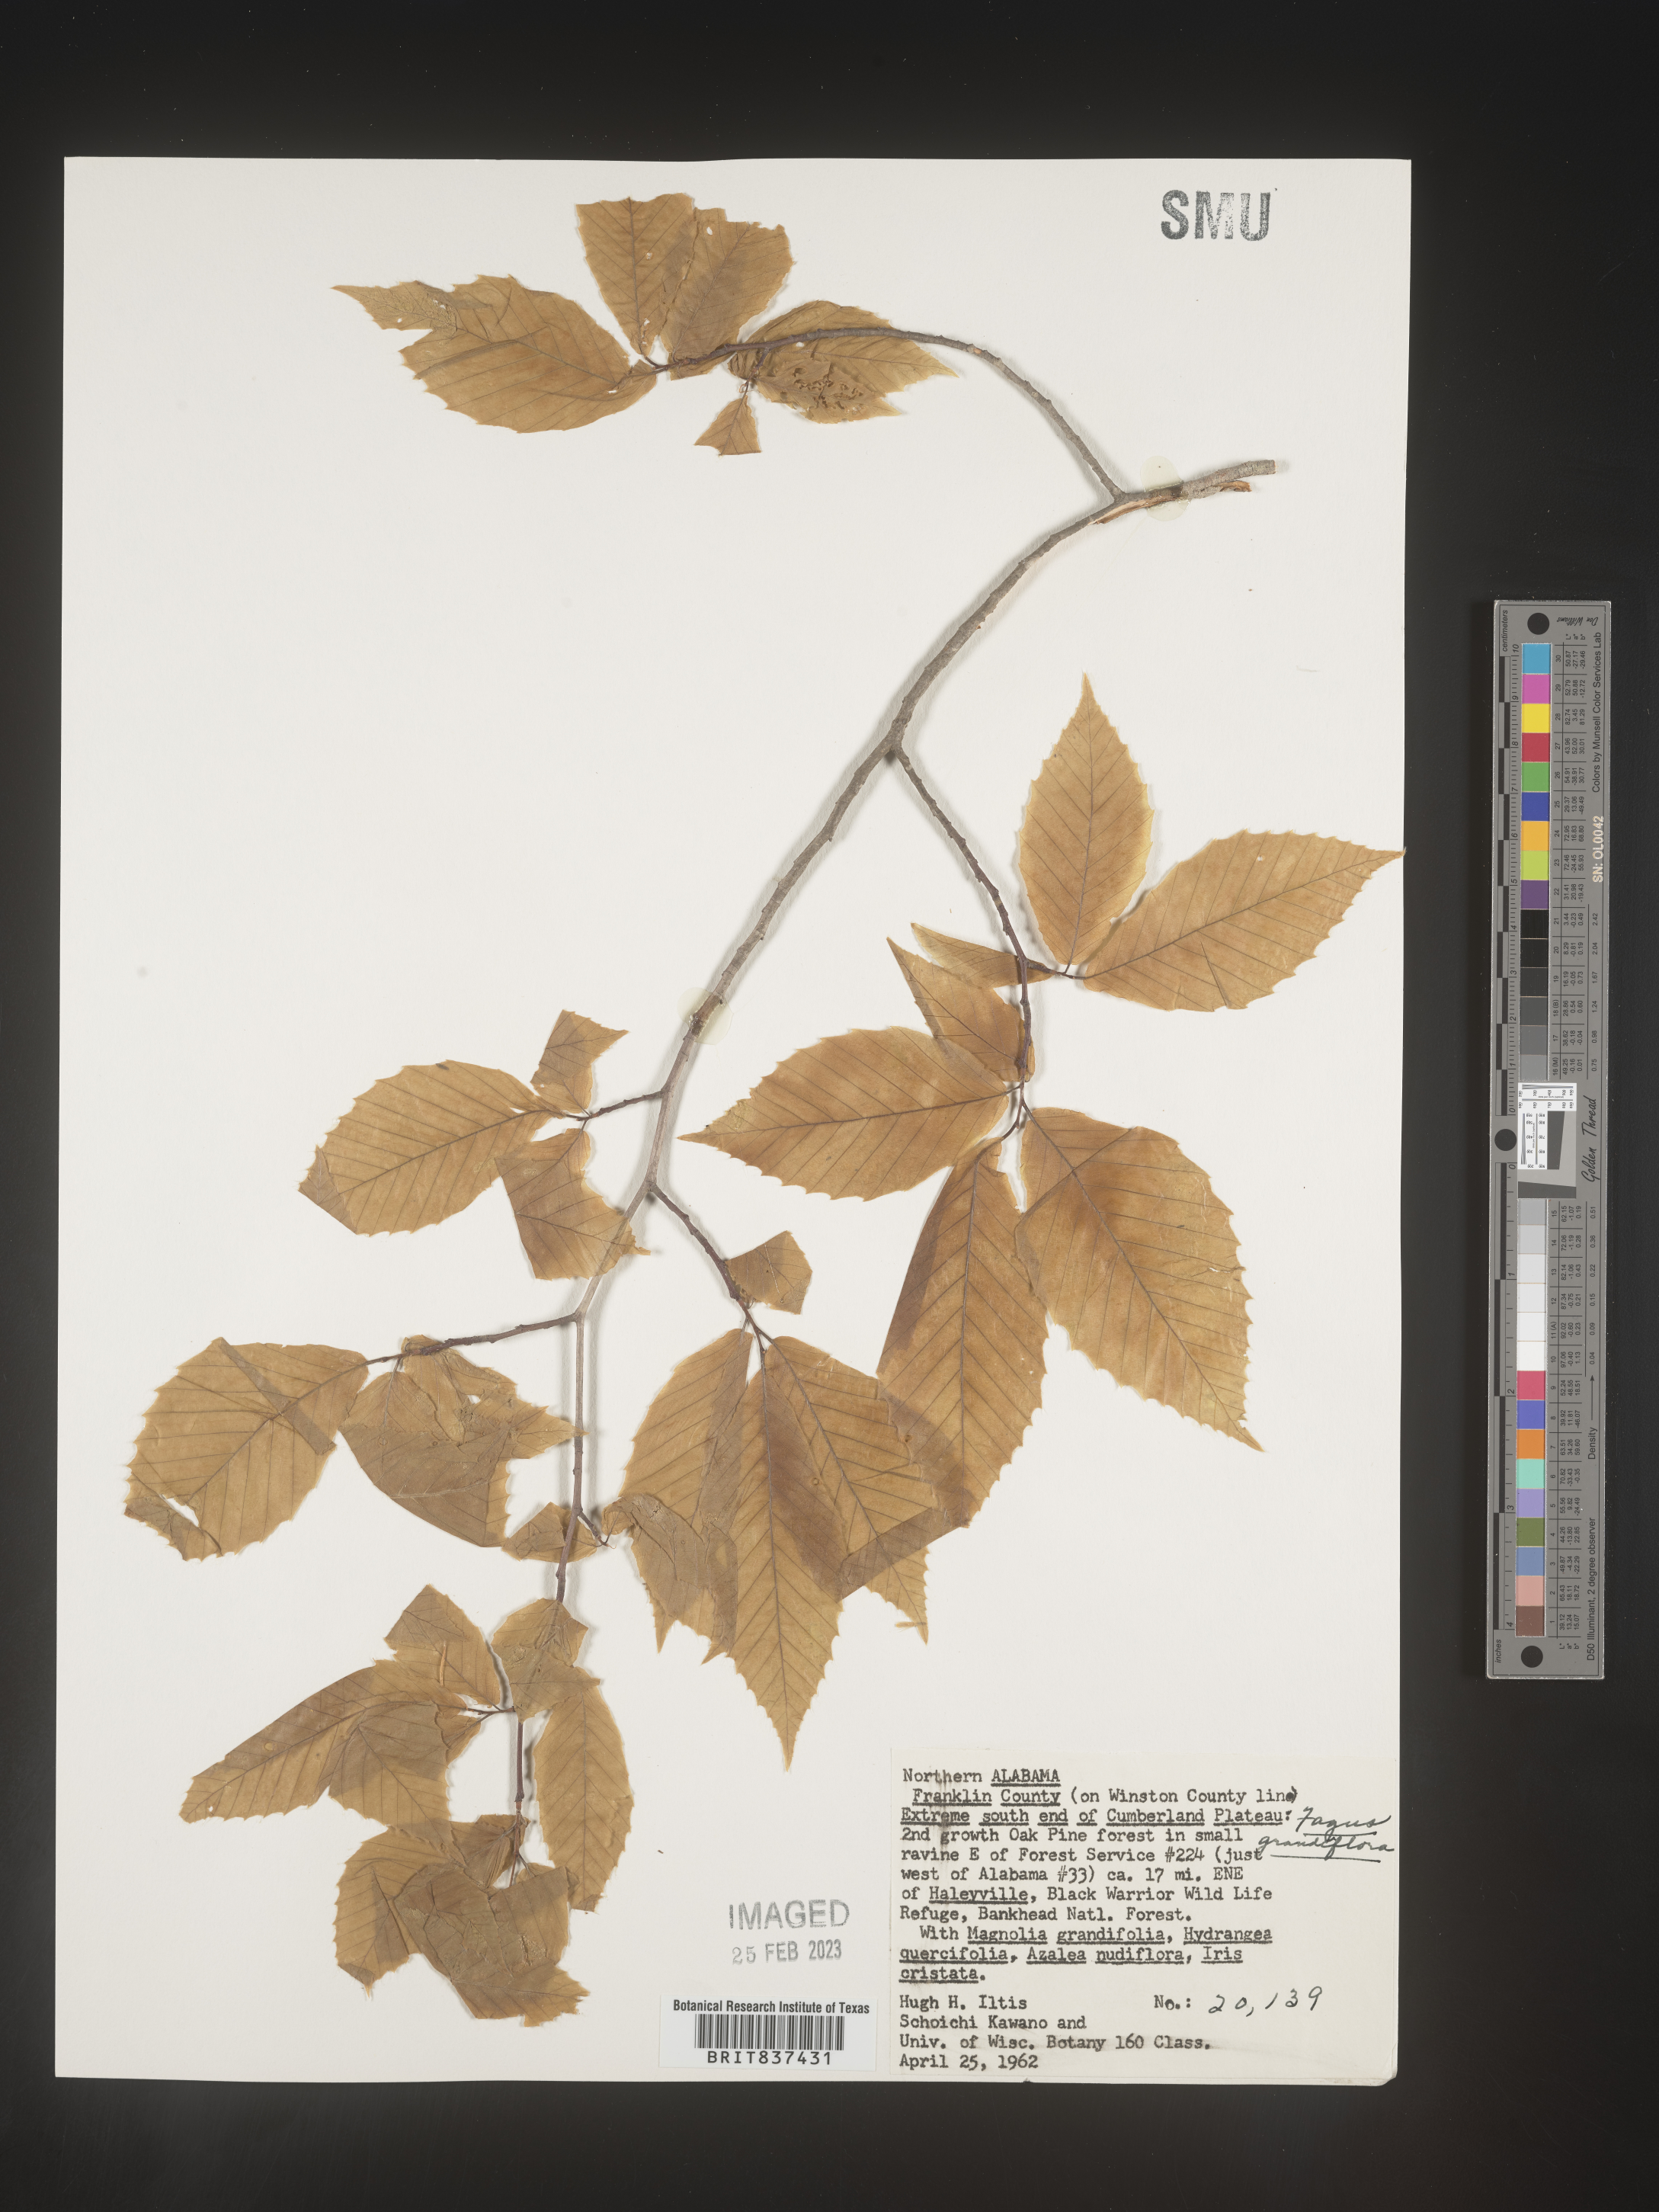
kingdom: Plantae
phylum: Tracheophyta
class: Magnoliopsida
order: Fagales
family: Fagaceae
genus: Fagus
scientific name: Fagus grandifolia
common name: American beech
